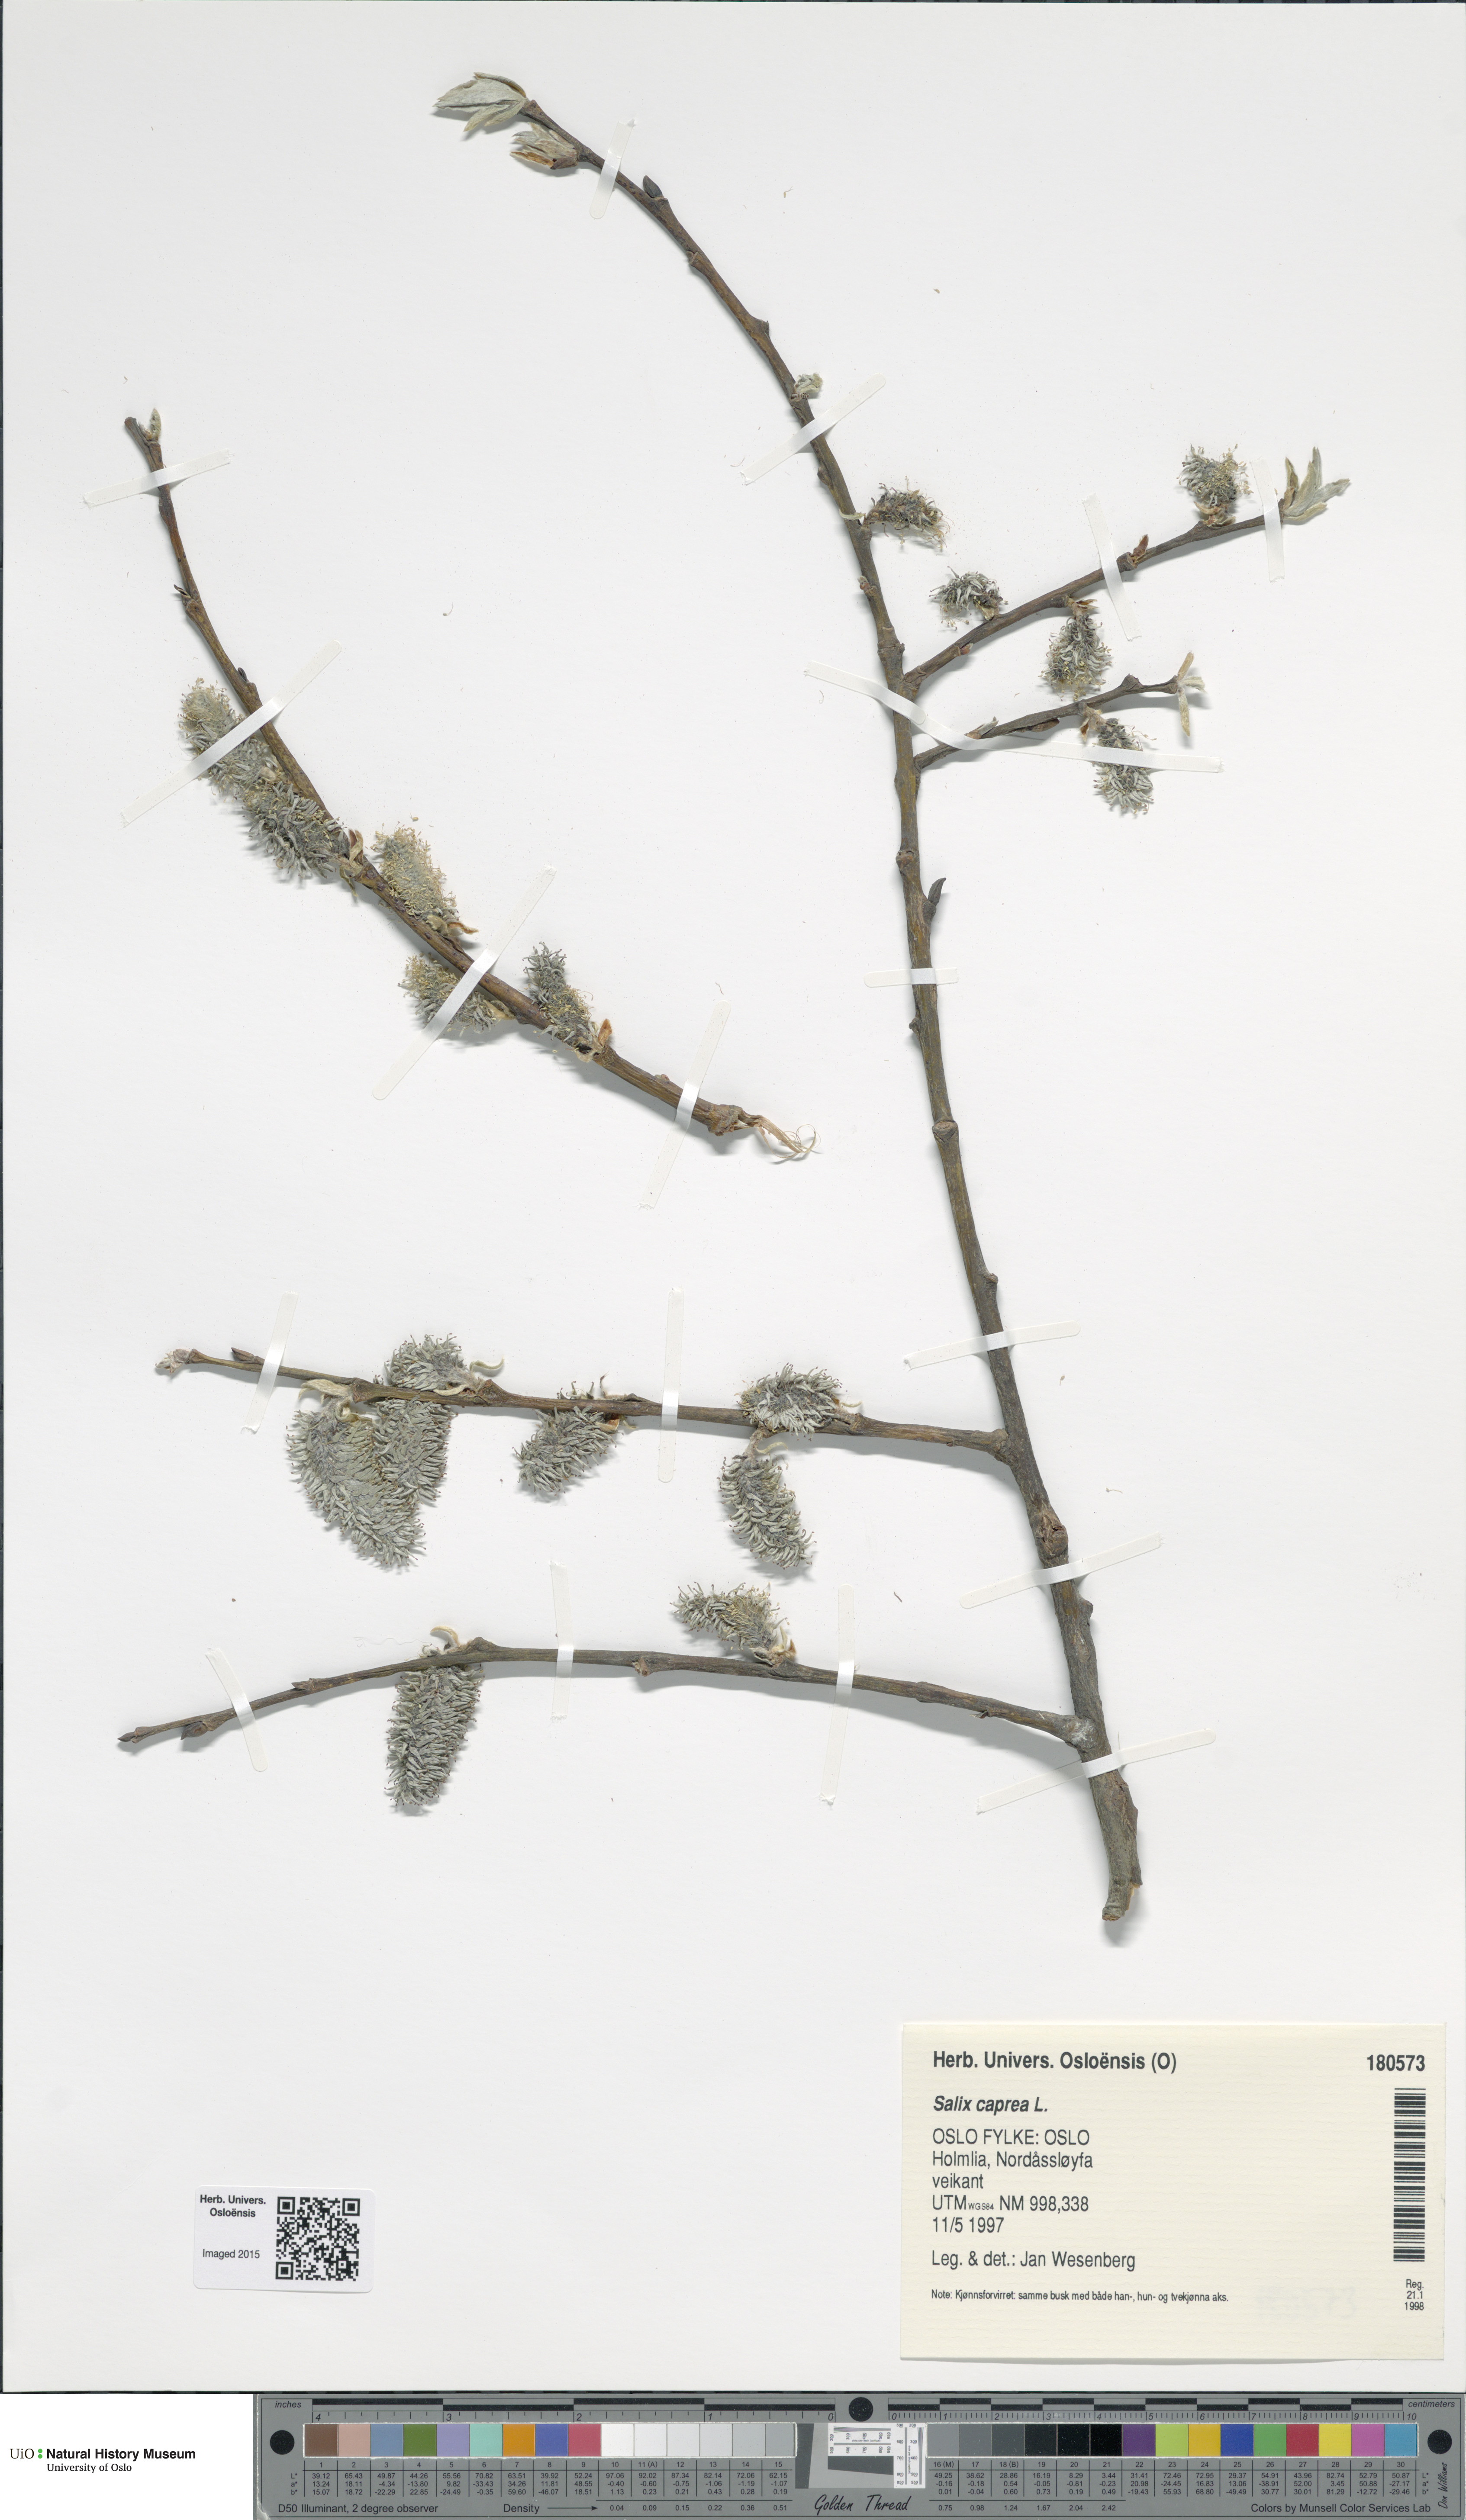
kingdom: Plantae
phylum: Tracheophyta
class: Magnoliopsida
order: Malpighiales
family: Salicaceae
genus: Salix
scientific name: Salix caprea
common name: Goat willow
